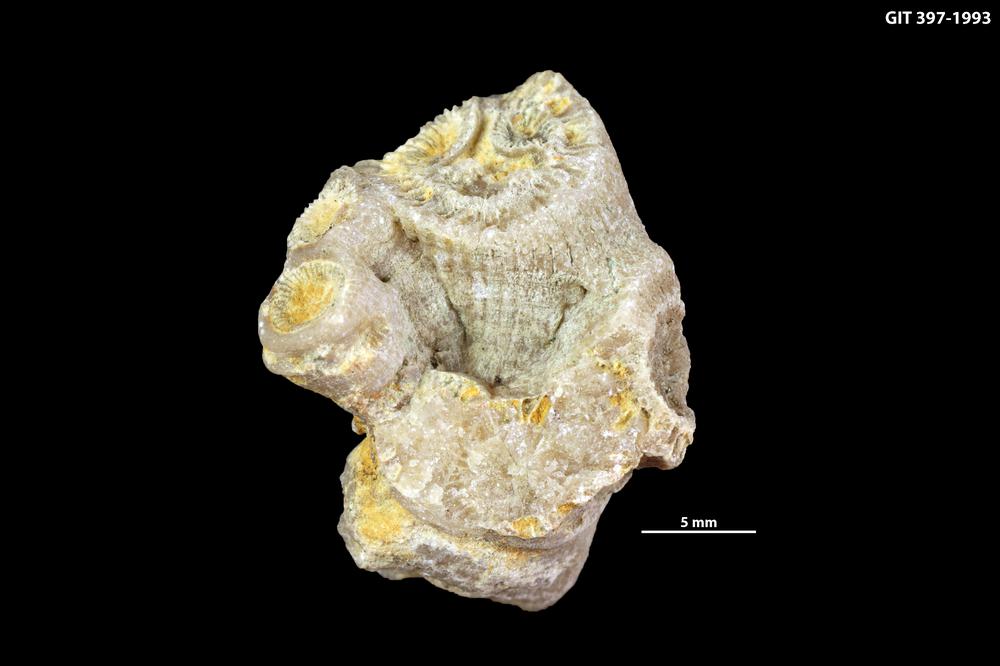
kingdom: Animalia
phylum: Cnidaria
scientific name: Cnidaria
